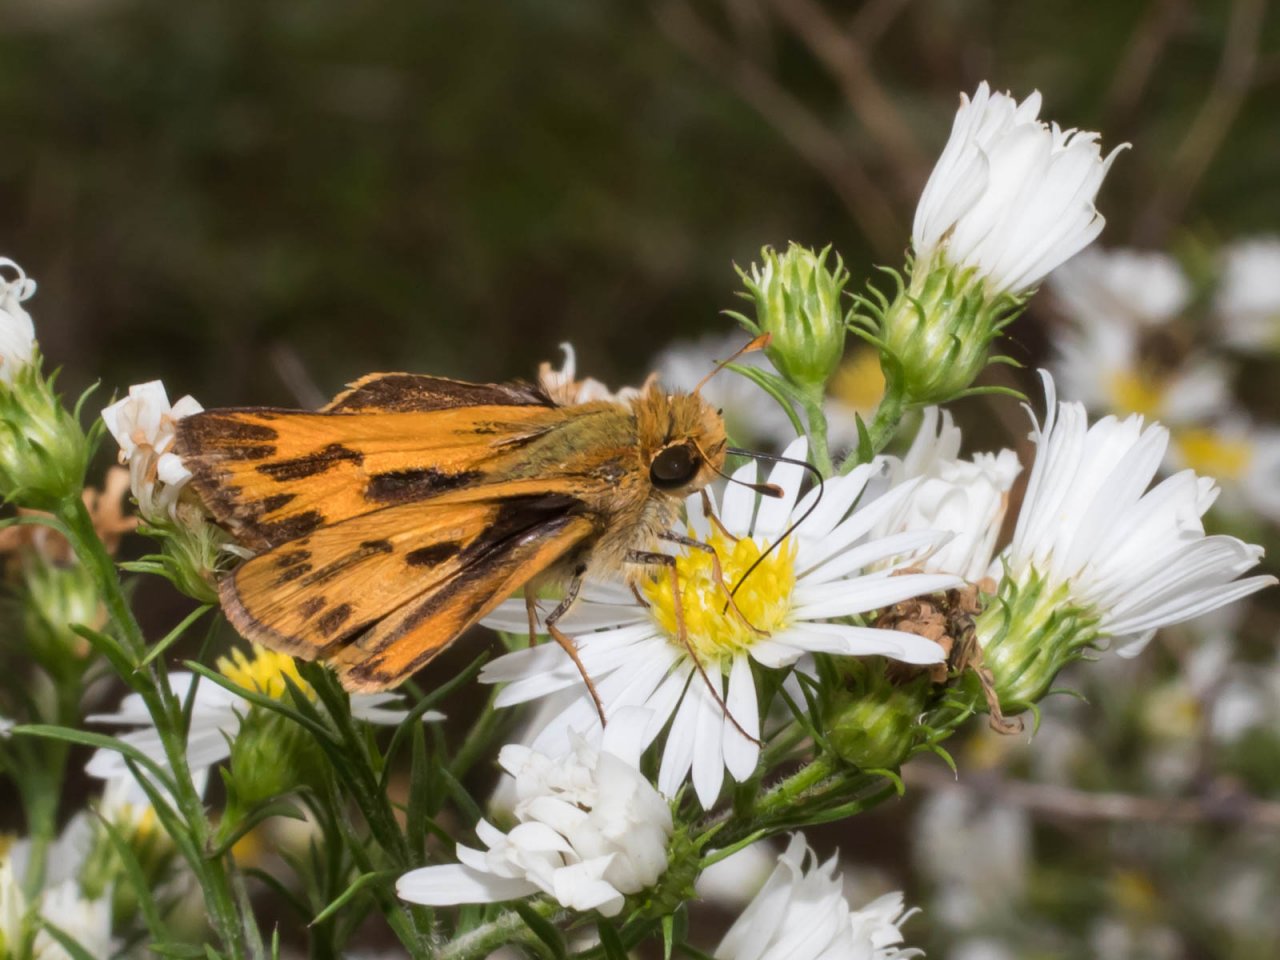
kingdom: Animalia
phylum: Arthropoda
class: Insecta
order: Lepidoptera
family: Hesperiidae
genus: Hylephila
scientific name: Hylephila phyleus
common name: Fiery Skipper
